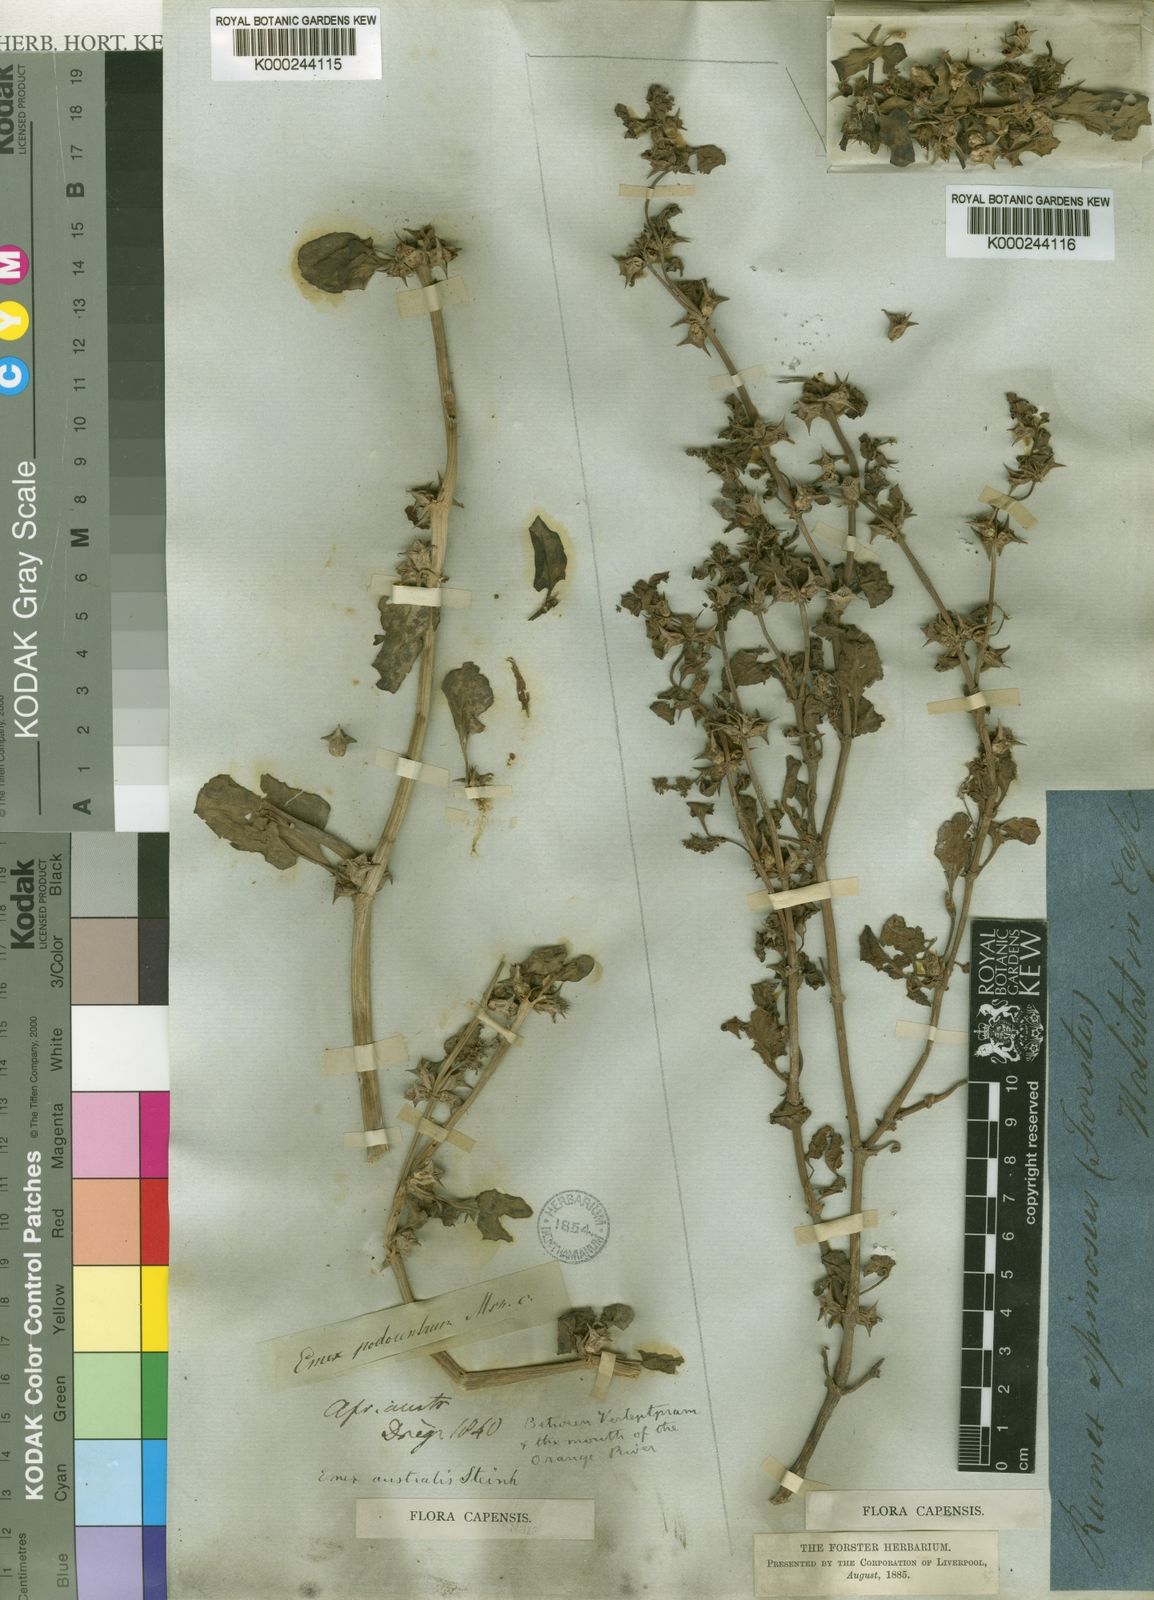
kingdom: Plantae
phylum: Tracheophyta
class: Magnoliopsida
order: Caryophyllales
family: Polygonaceae
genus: Rumex
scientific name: Rumex hypogaeus
